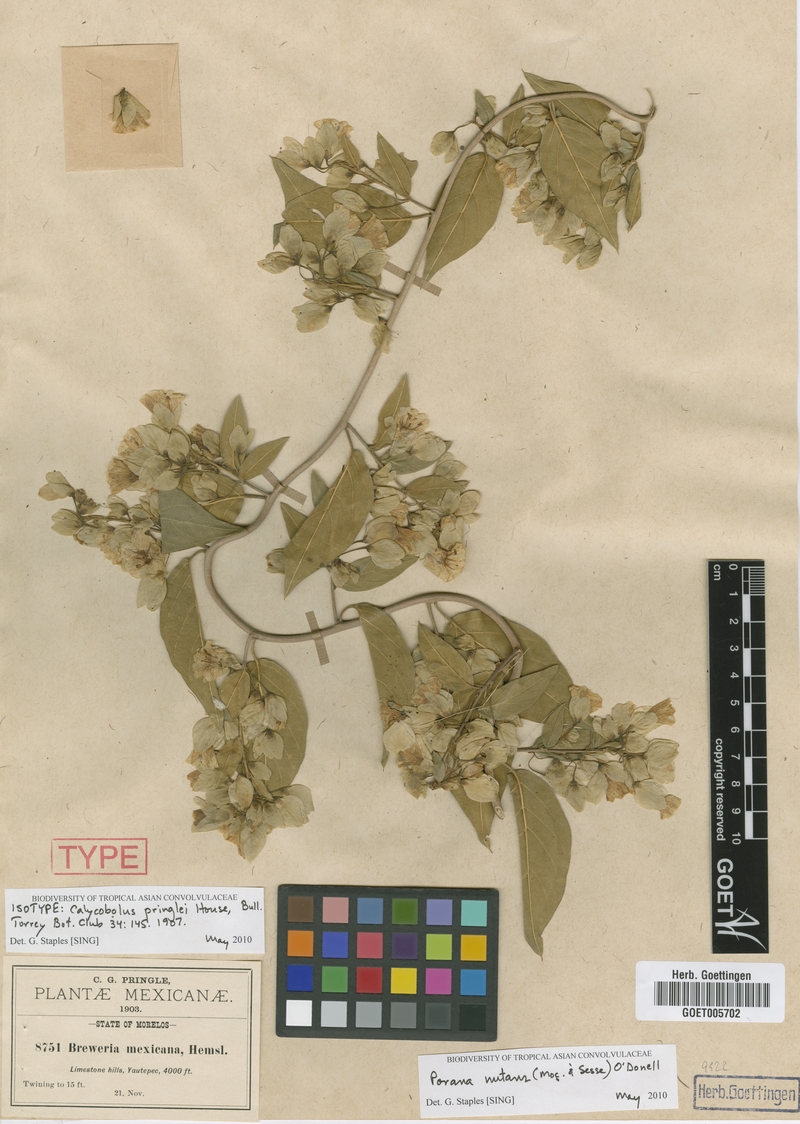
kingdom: Plantae
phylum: Tracheophyta
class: Magnoliopsida
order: Solanales
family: Convolvulaceae
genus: Porana
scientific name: Porana
